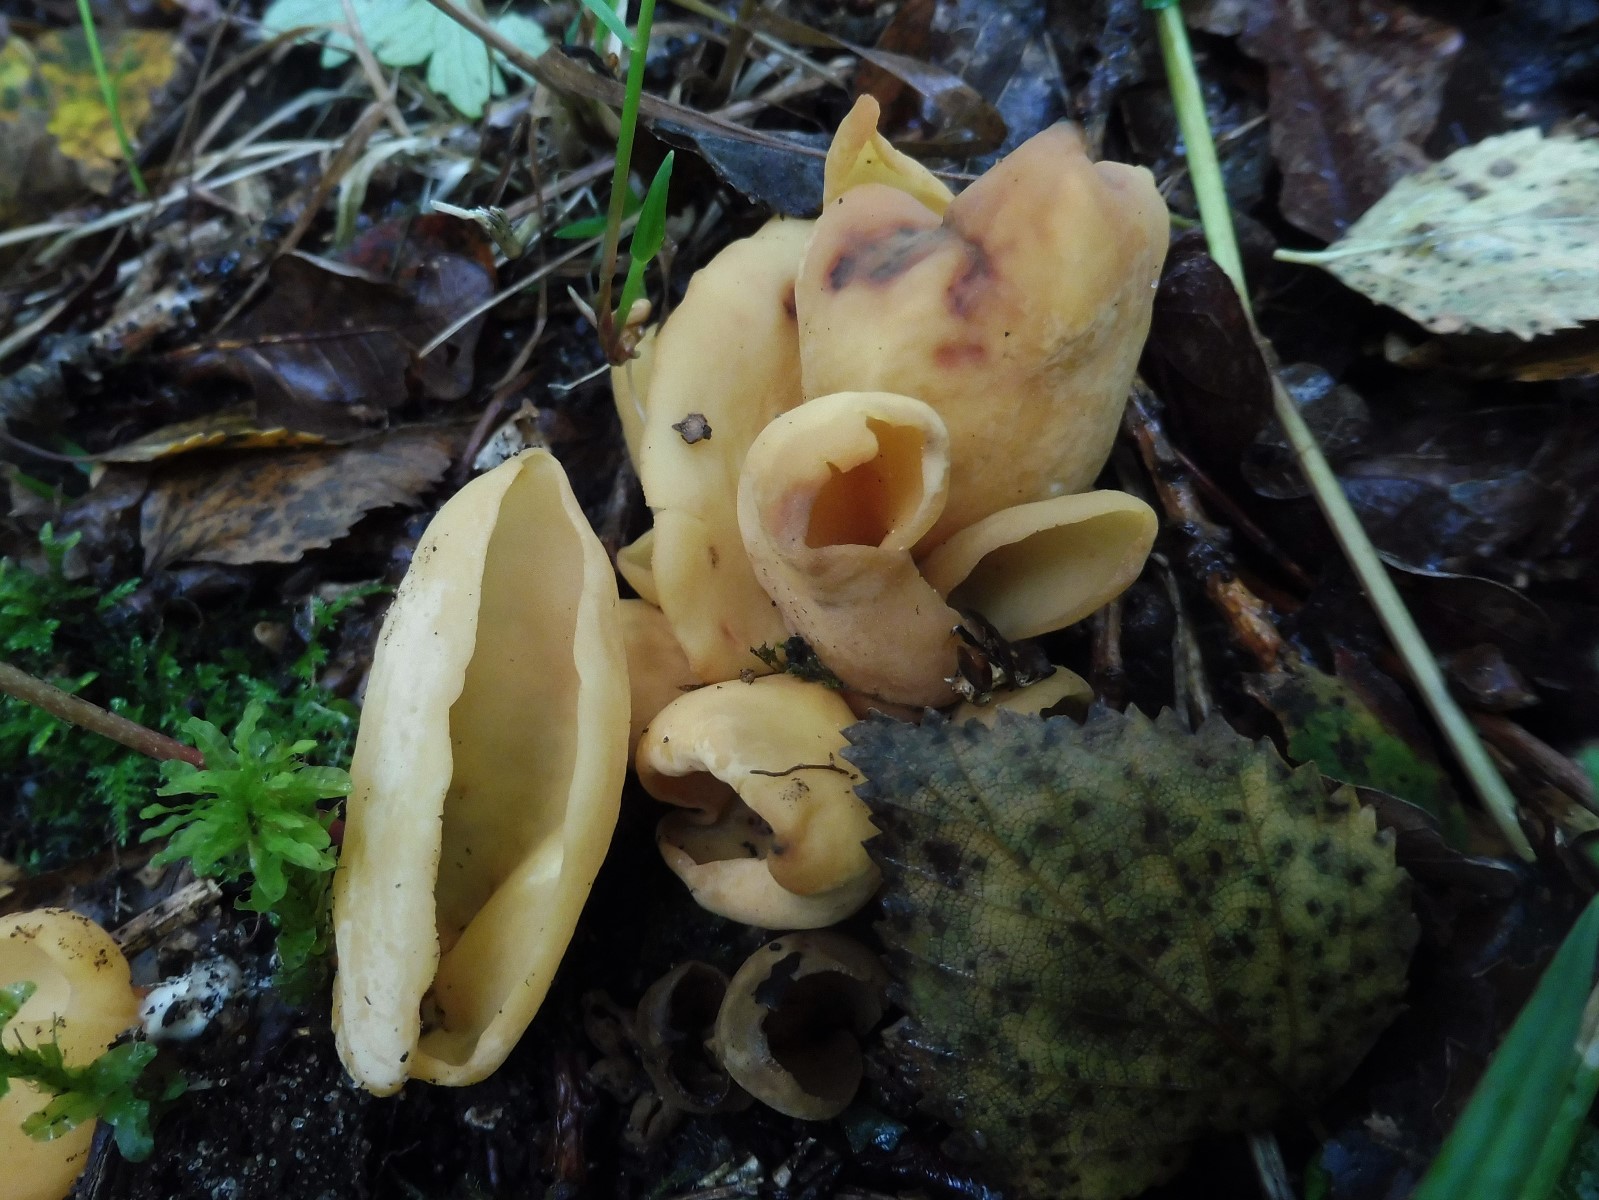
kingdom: Fungi
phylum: Ascomycota
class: Pezizomycetes
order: Pezizales
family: Otideaceae
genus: Otidea
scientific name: Otidea onotica
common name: æsel-ørebæger
